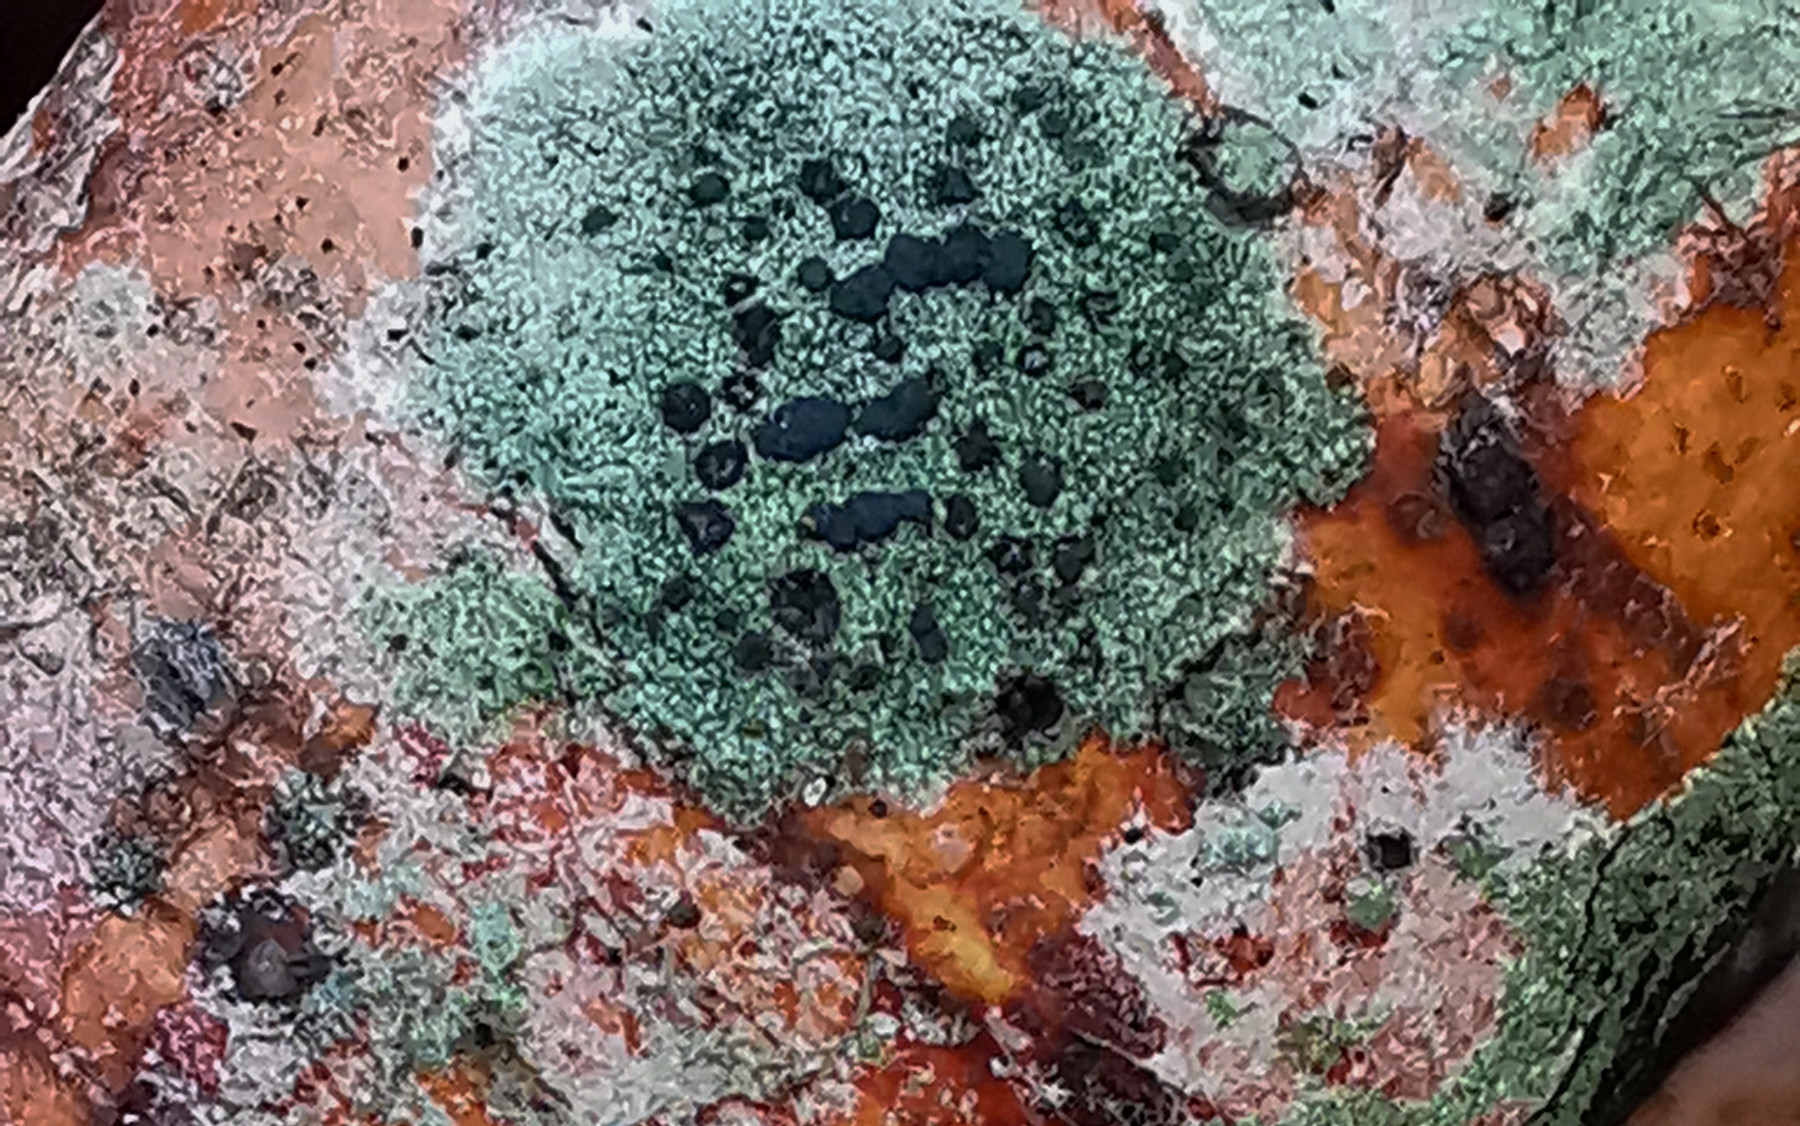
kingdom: Fungi
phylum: Ascomycota
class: Lecanoromycetes
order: Lecanorales
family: Lecanoraceae
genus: Lecidella
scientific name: Lecidella elaeochroma
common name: grågrøn skivelav
